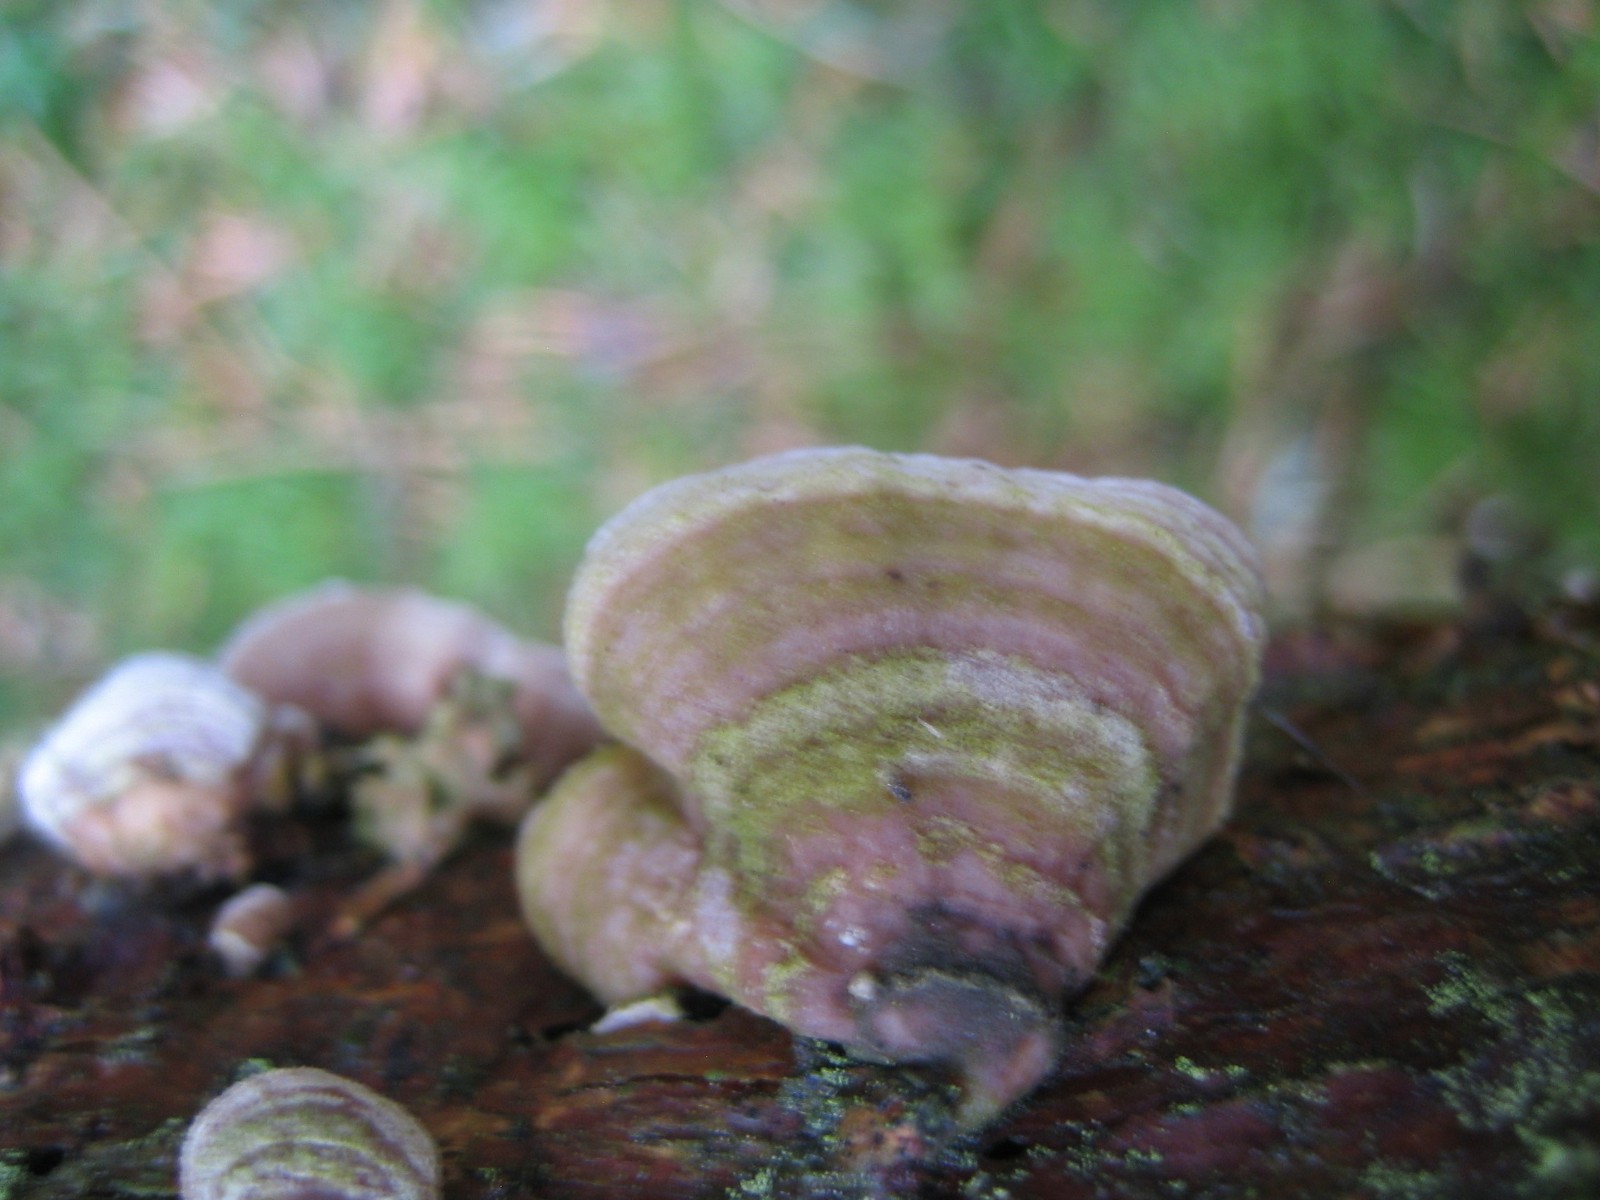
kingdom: Fungi
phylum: Basidiomycota
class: Agaricomycetes
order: Polyporales
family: Incrustoporiaceae
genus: Skeletocutis
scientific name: Skeletocutis carneogrisea
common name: rødgrå krystalporesvamp
